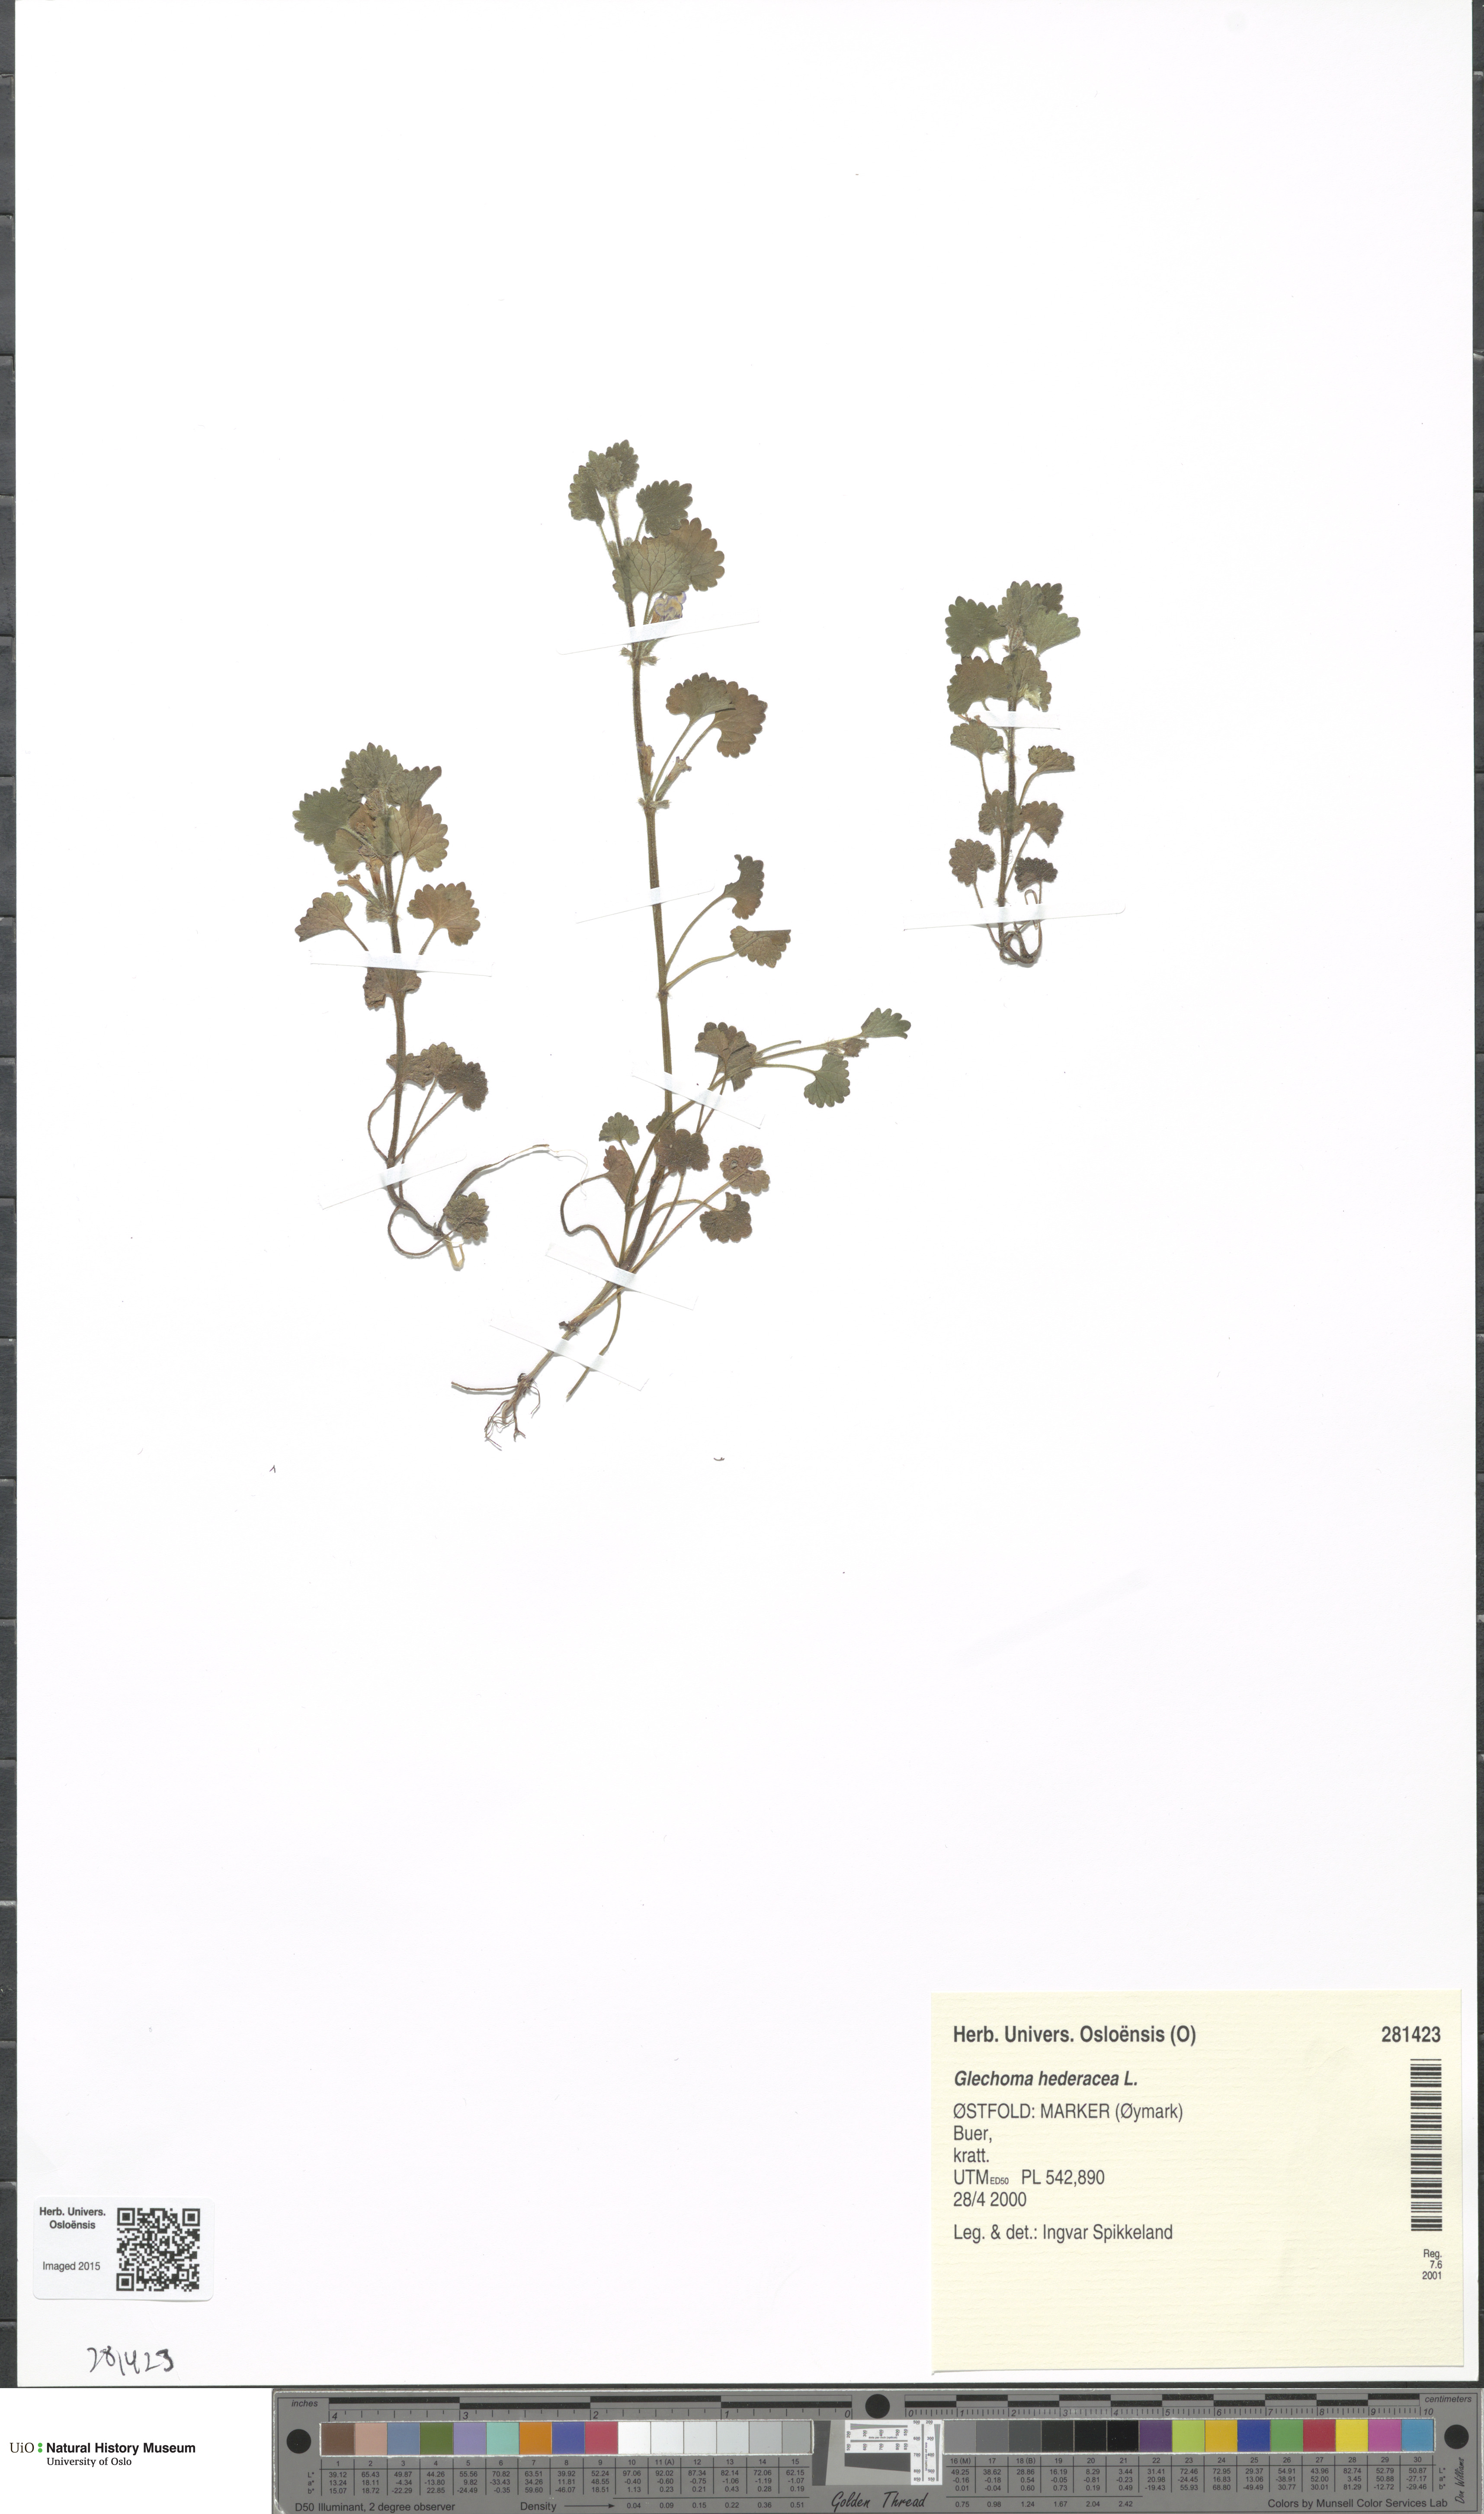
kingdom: Plantae
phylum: Tracheophyta
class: Magnoliopsida
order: Lamiales
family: Lamiaceae
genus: Glechoma
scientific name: Glechoma hederacea
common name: Ground ivy
